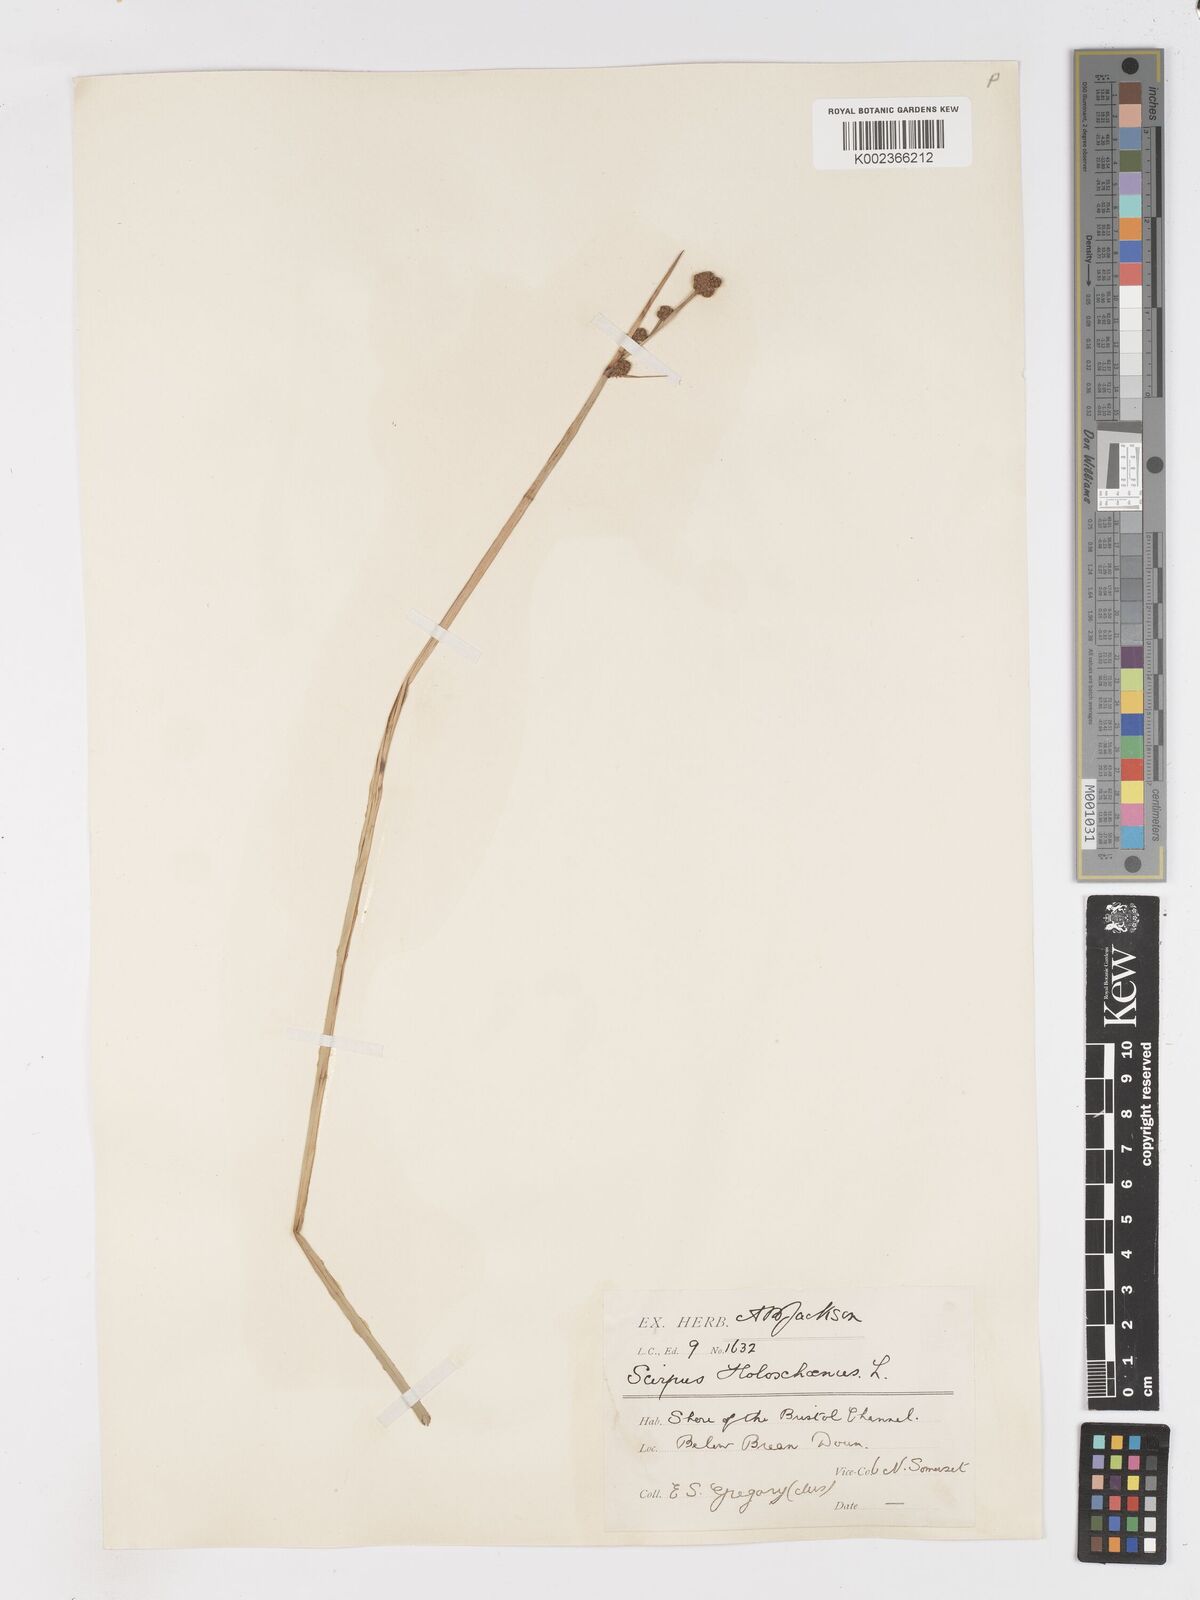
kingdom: Plantae
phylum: Tracheophyta
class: Liliopsida
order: Poales
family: Cyperaceae
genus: Scirpoides
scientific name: Scirpoides holoschoenus
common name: Round-headed club-rush
